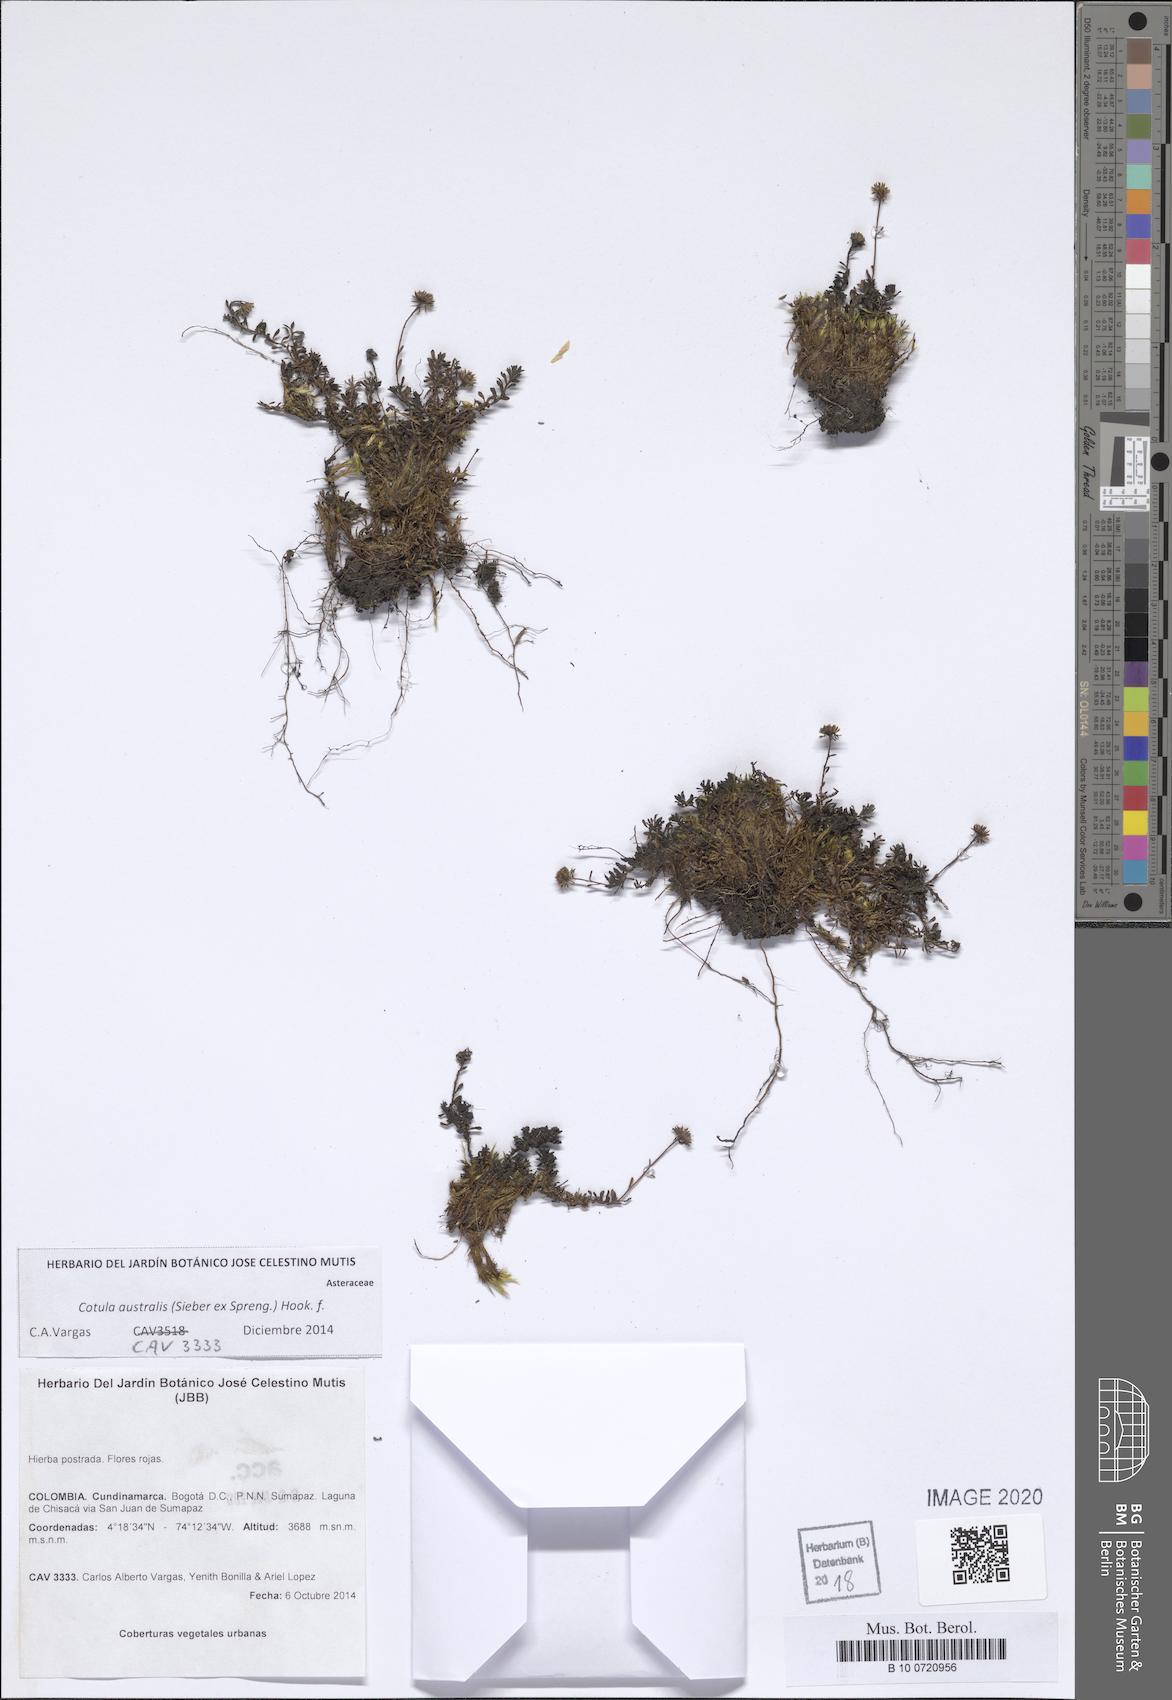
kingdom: Plantae
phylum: Tracheophyta
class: Magnoliopsida
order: Asterales
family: Asteraceae
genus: Cotula
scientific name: Cotula australis
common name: Australian waterbuttons
